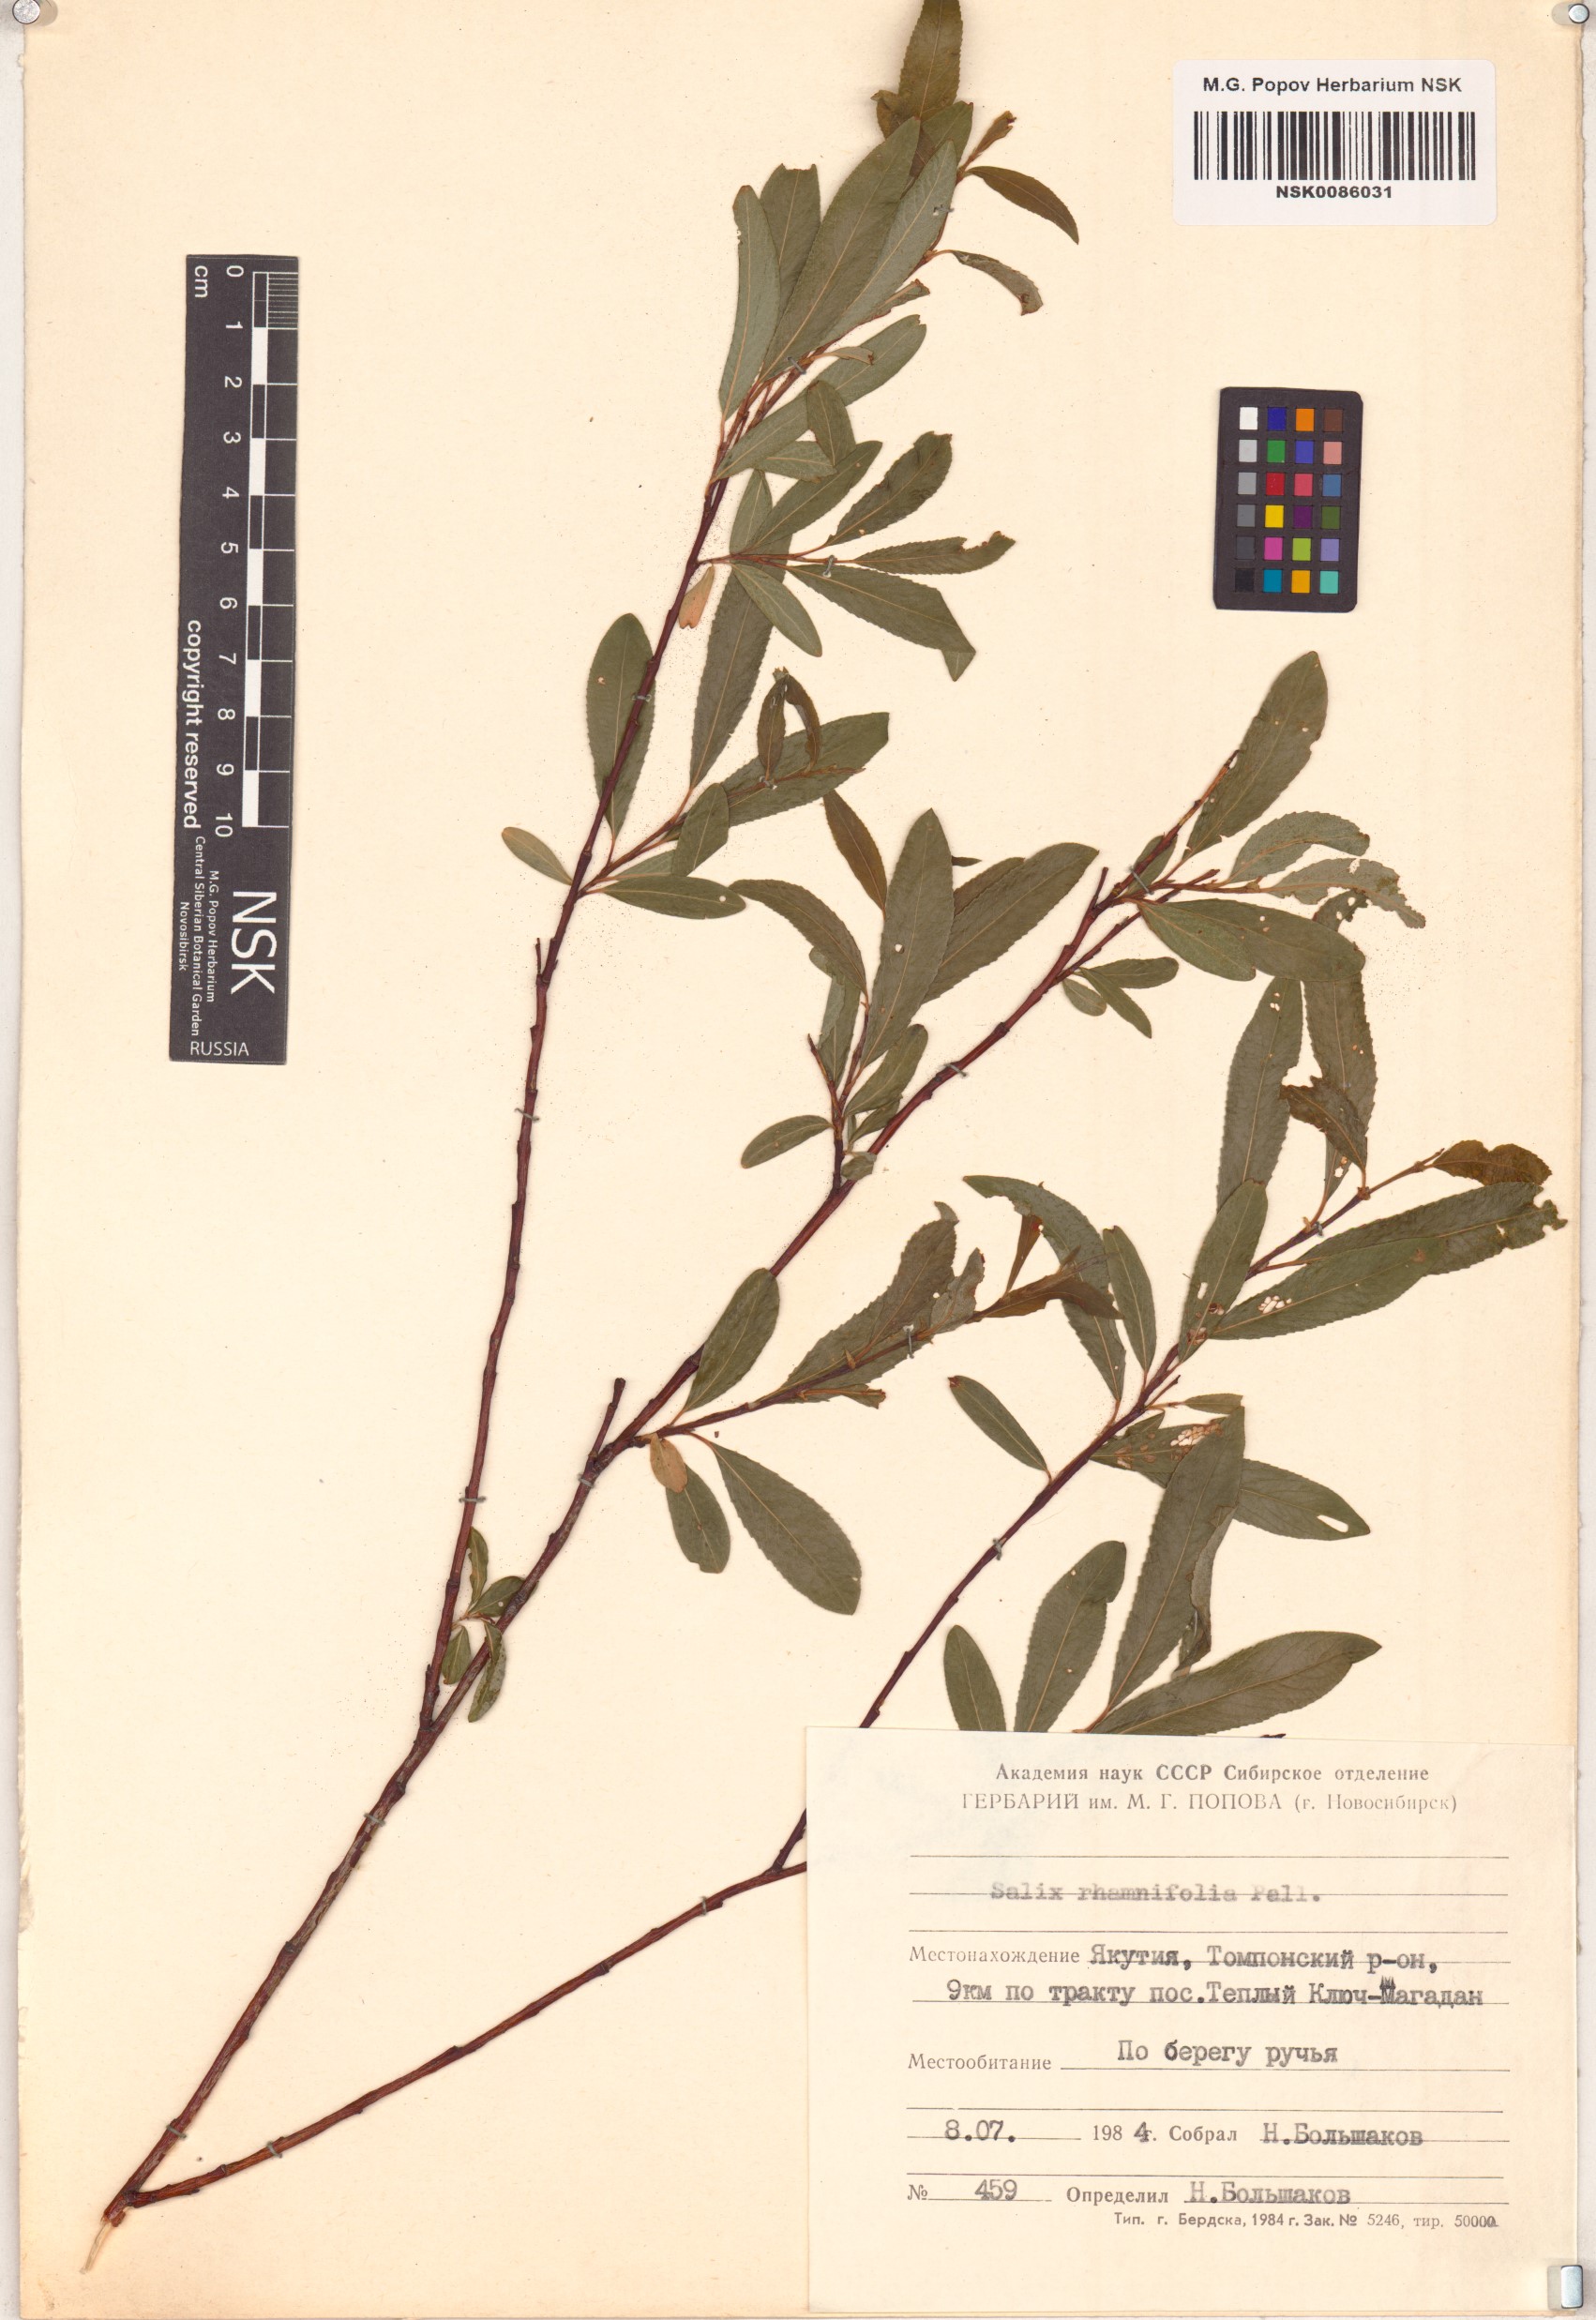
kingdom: Plantae
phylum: Tracheophyta
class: Magnoliopsida
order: Malpighiales
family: Salicaceae
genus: Salix
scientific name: Salix rhamnifolia
